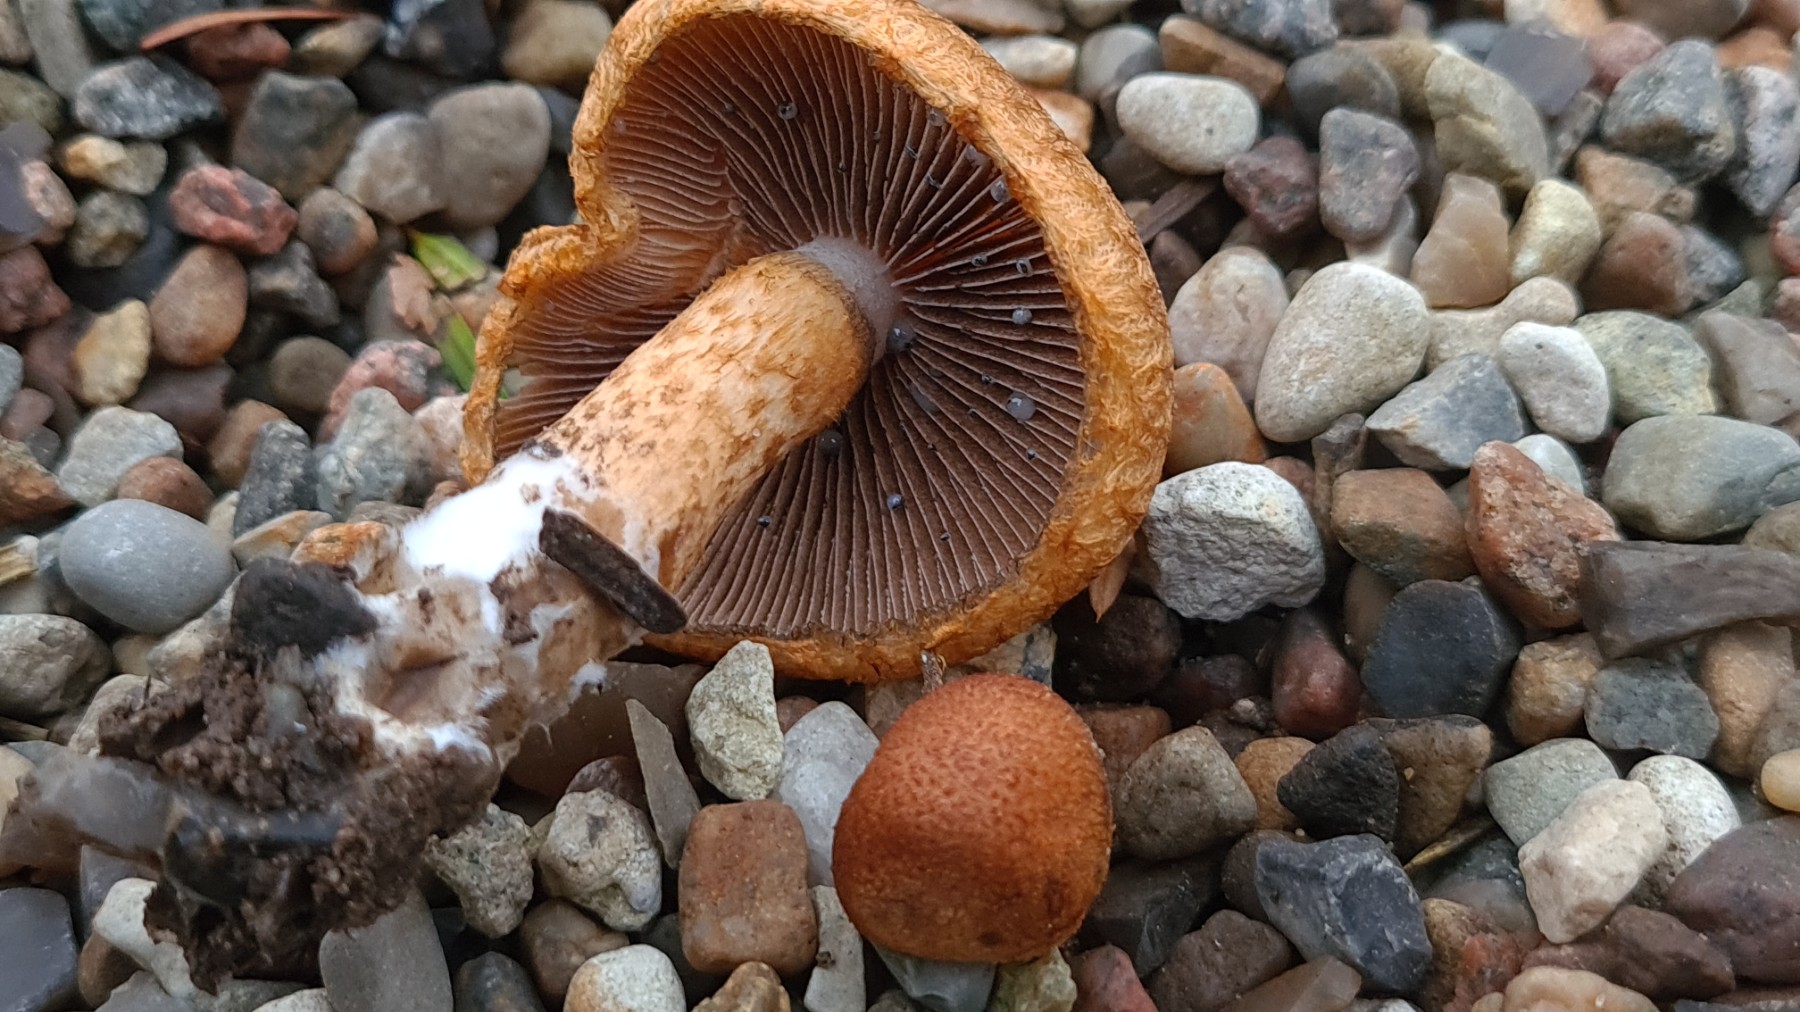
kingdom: Fungi
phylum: Basidiomycota
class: Agaricomycetes
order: Agaricales
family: Psathyrellaceae
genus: Lacrymaria
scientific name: Lacrymaria pyrotricha
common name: ildhåret mørkhat
